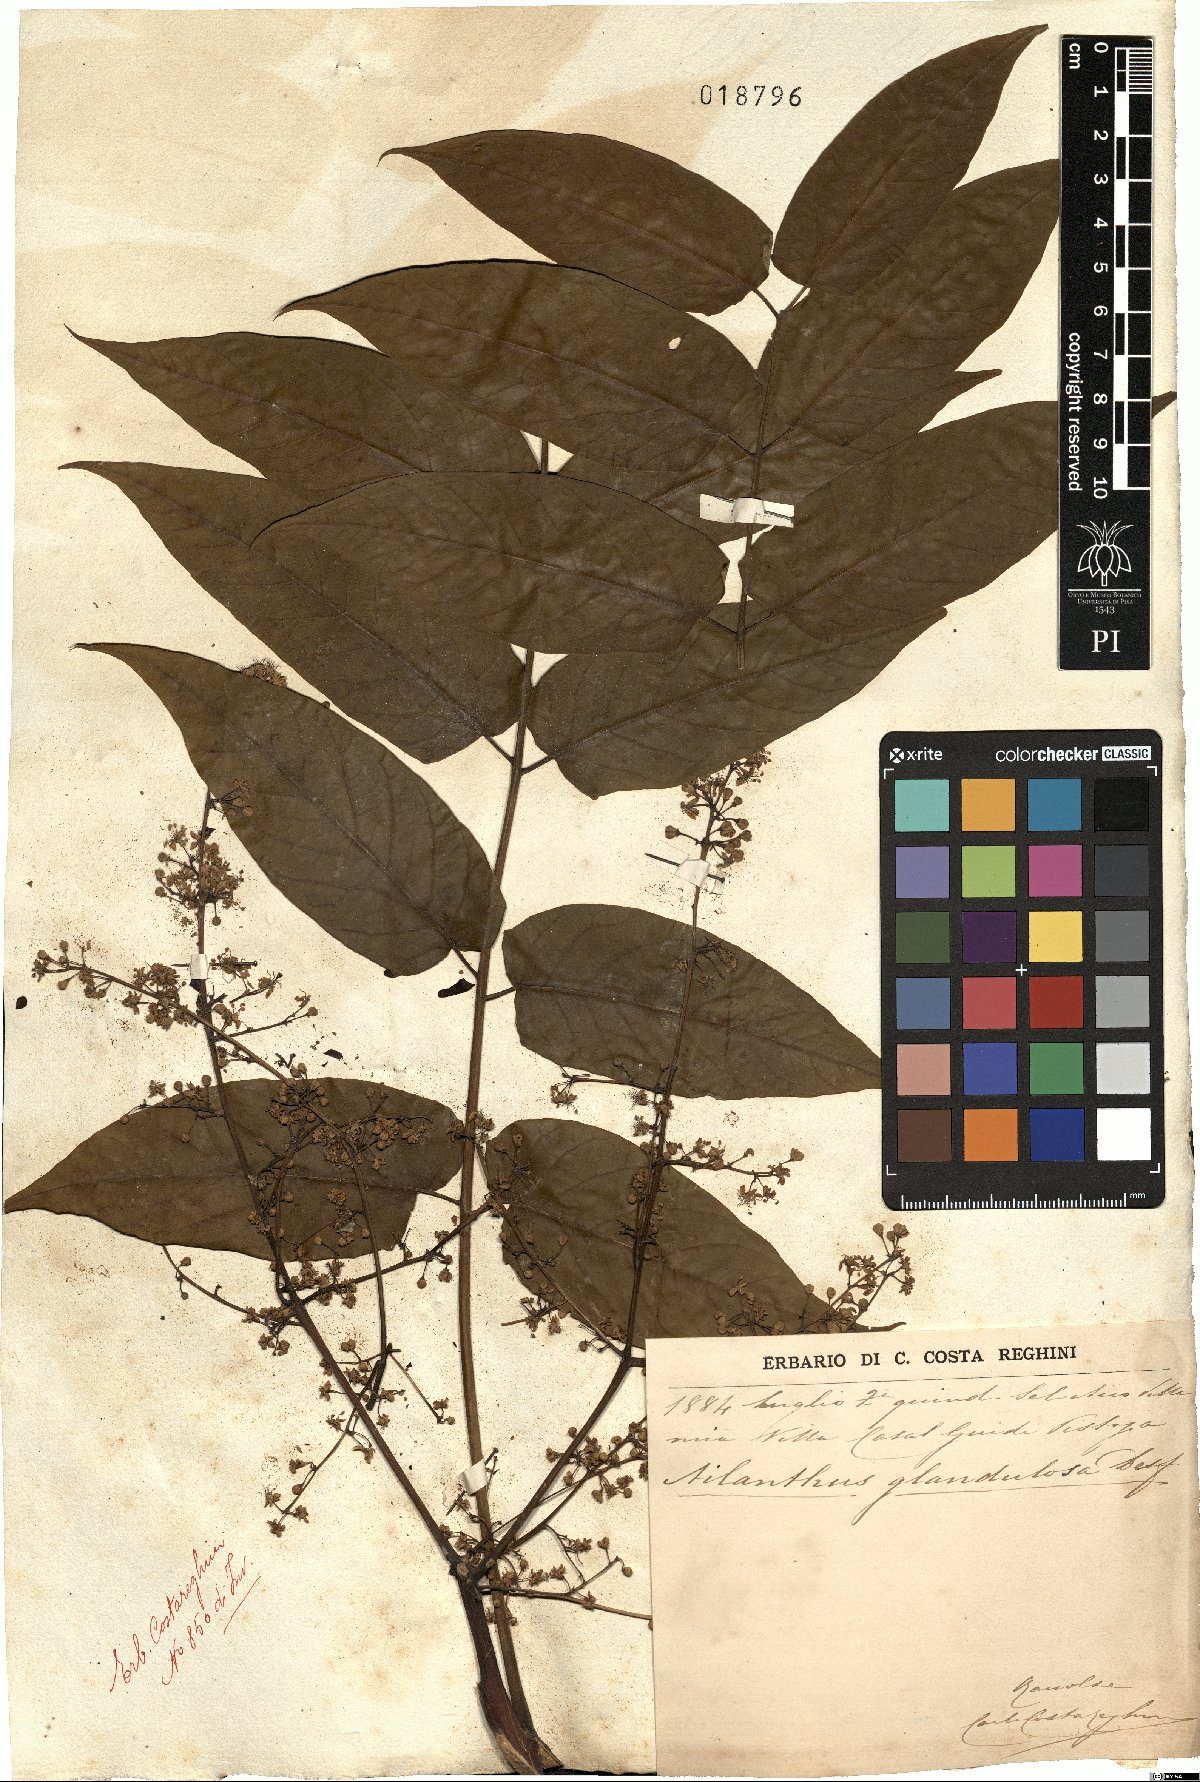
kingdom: Plantae
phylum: Tracheophyta
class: Magnoliopsida
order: Sapindales
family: Simaroubaceae
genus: Ailanthus
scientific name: Ailanthus altissima
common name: Tree-of-heaven
